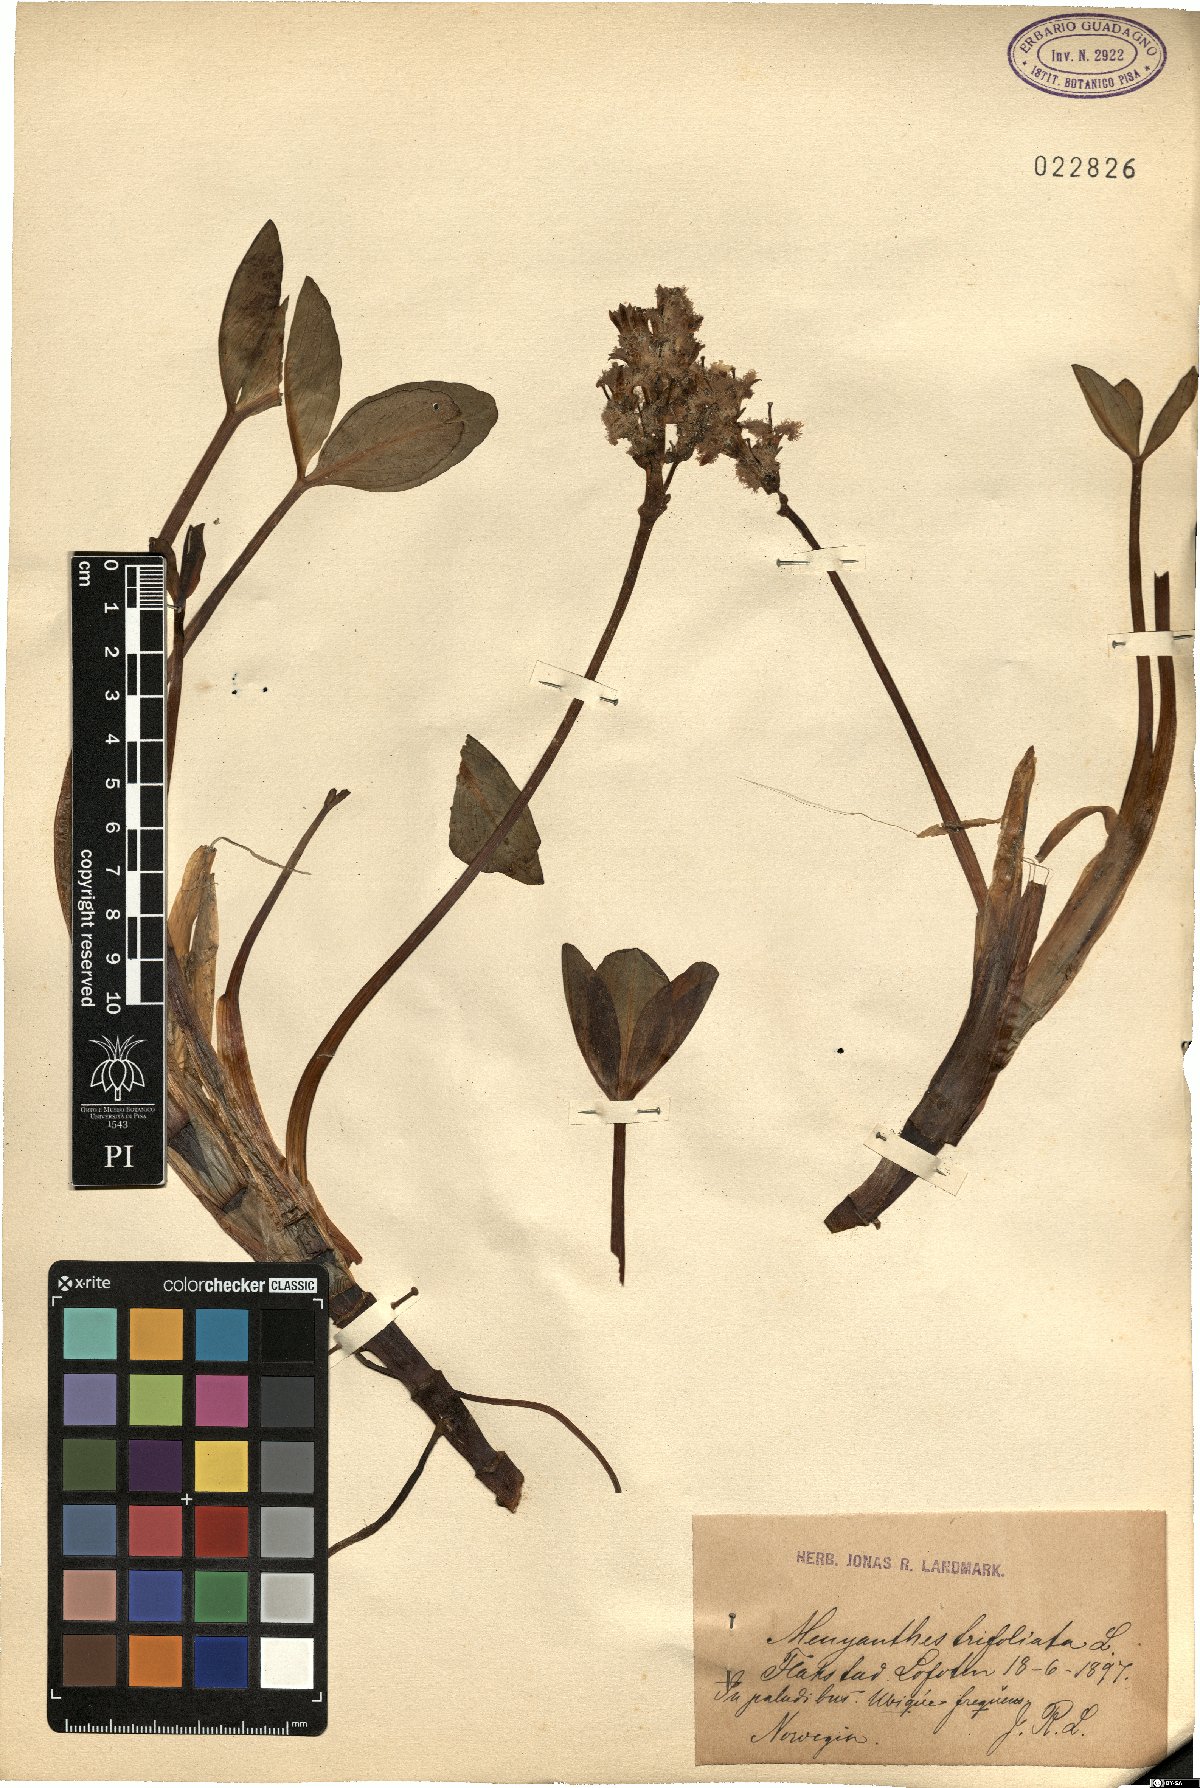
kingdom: Plantae
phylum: Tracheophyta
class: Magnoliopsida
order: Asterales
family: Menyanthaceae
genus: Menyanthes
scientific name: Menyanthes trifoliata
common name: Bogbean
